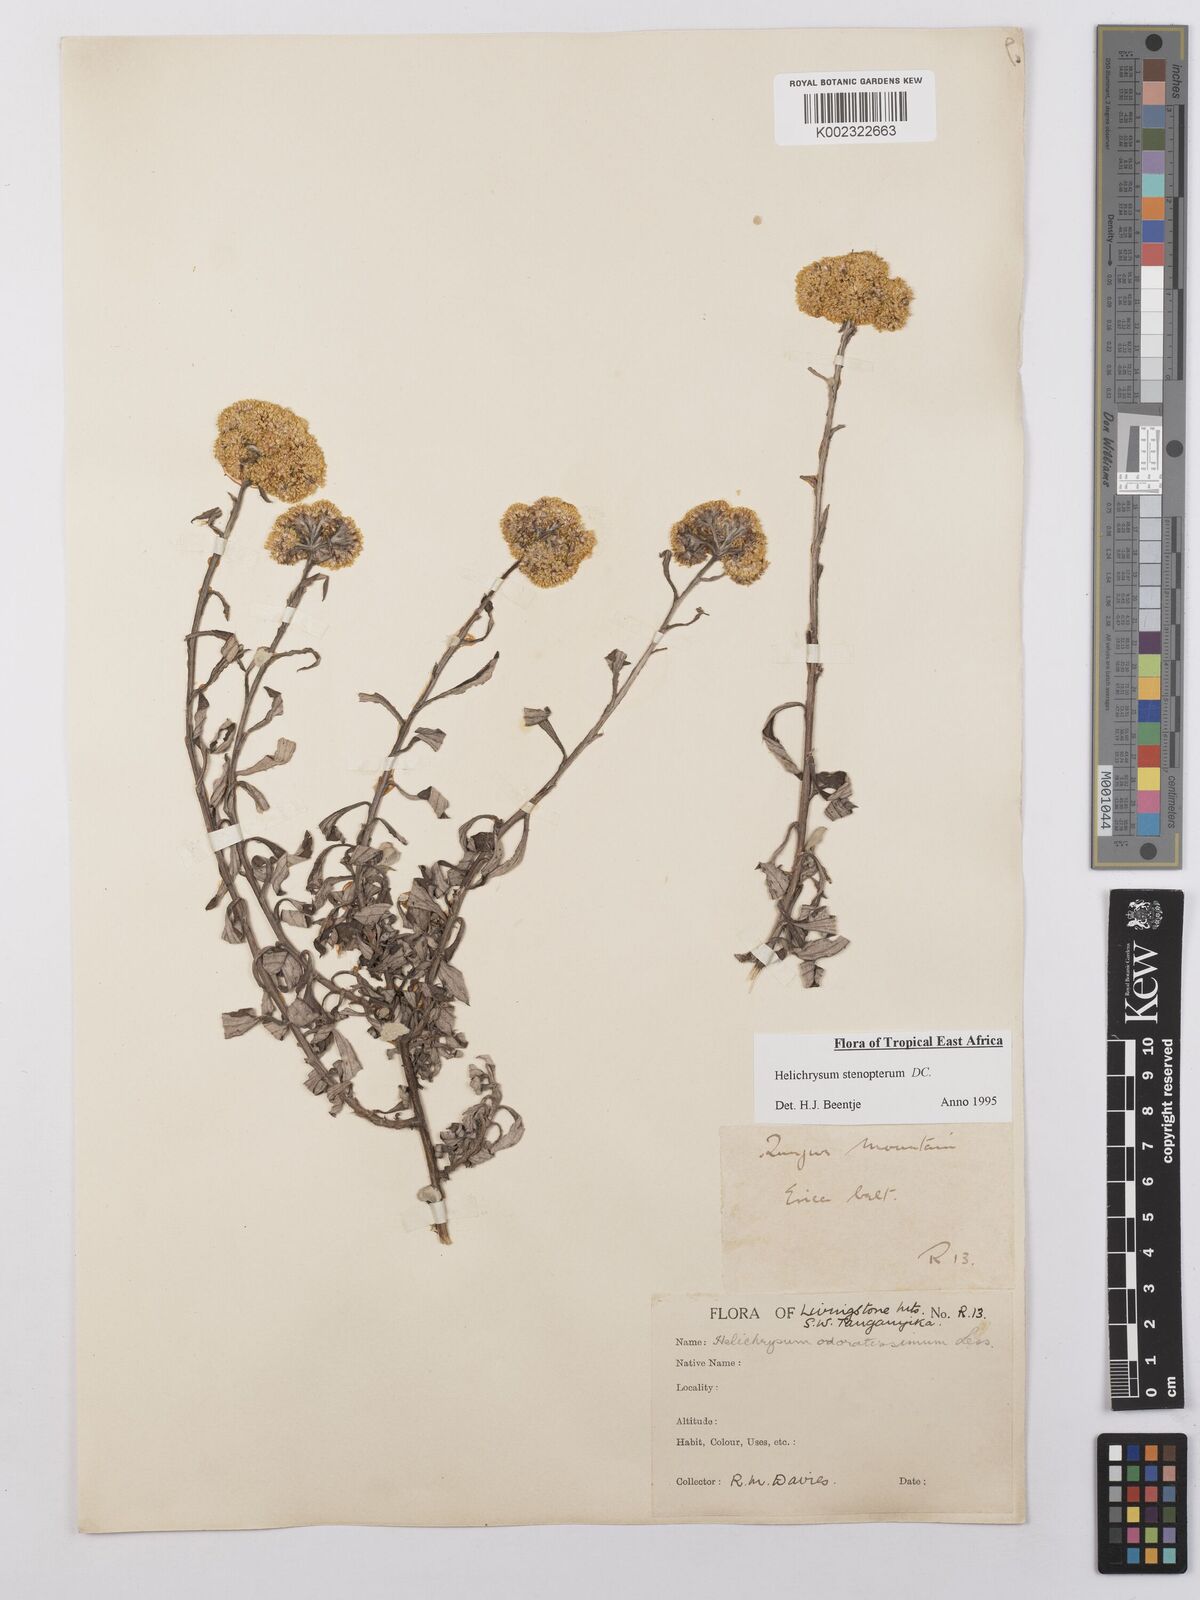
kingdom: Plantae
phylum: Tracheophyta
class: Magnoliopsida
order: Asterales
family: Asteraceae
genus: Helichrysum
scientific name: Helichrysum stenopterum
